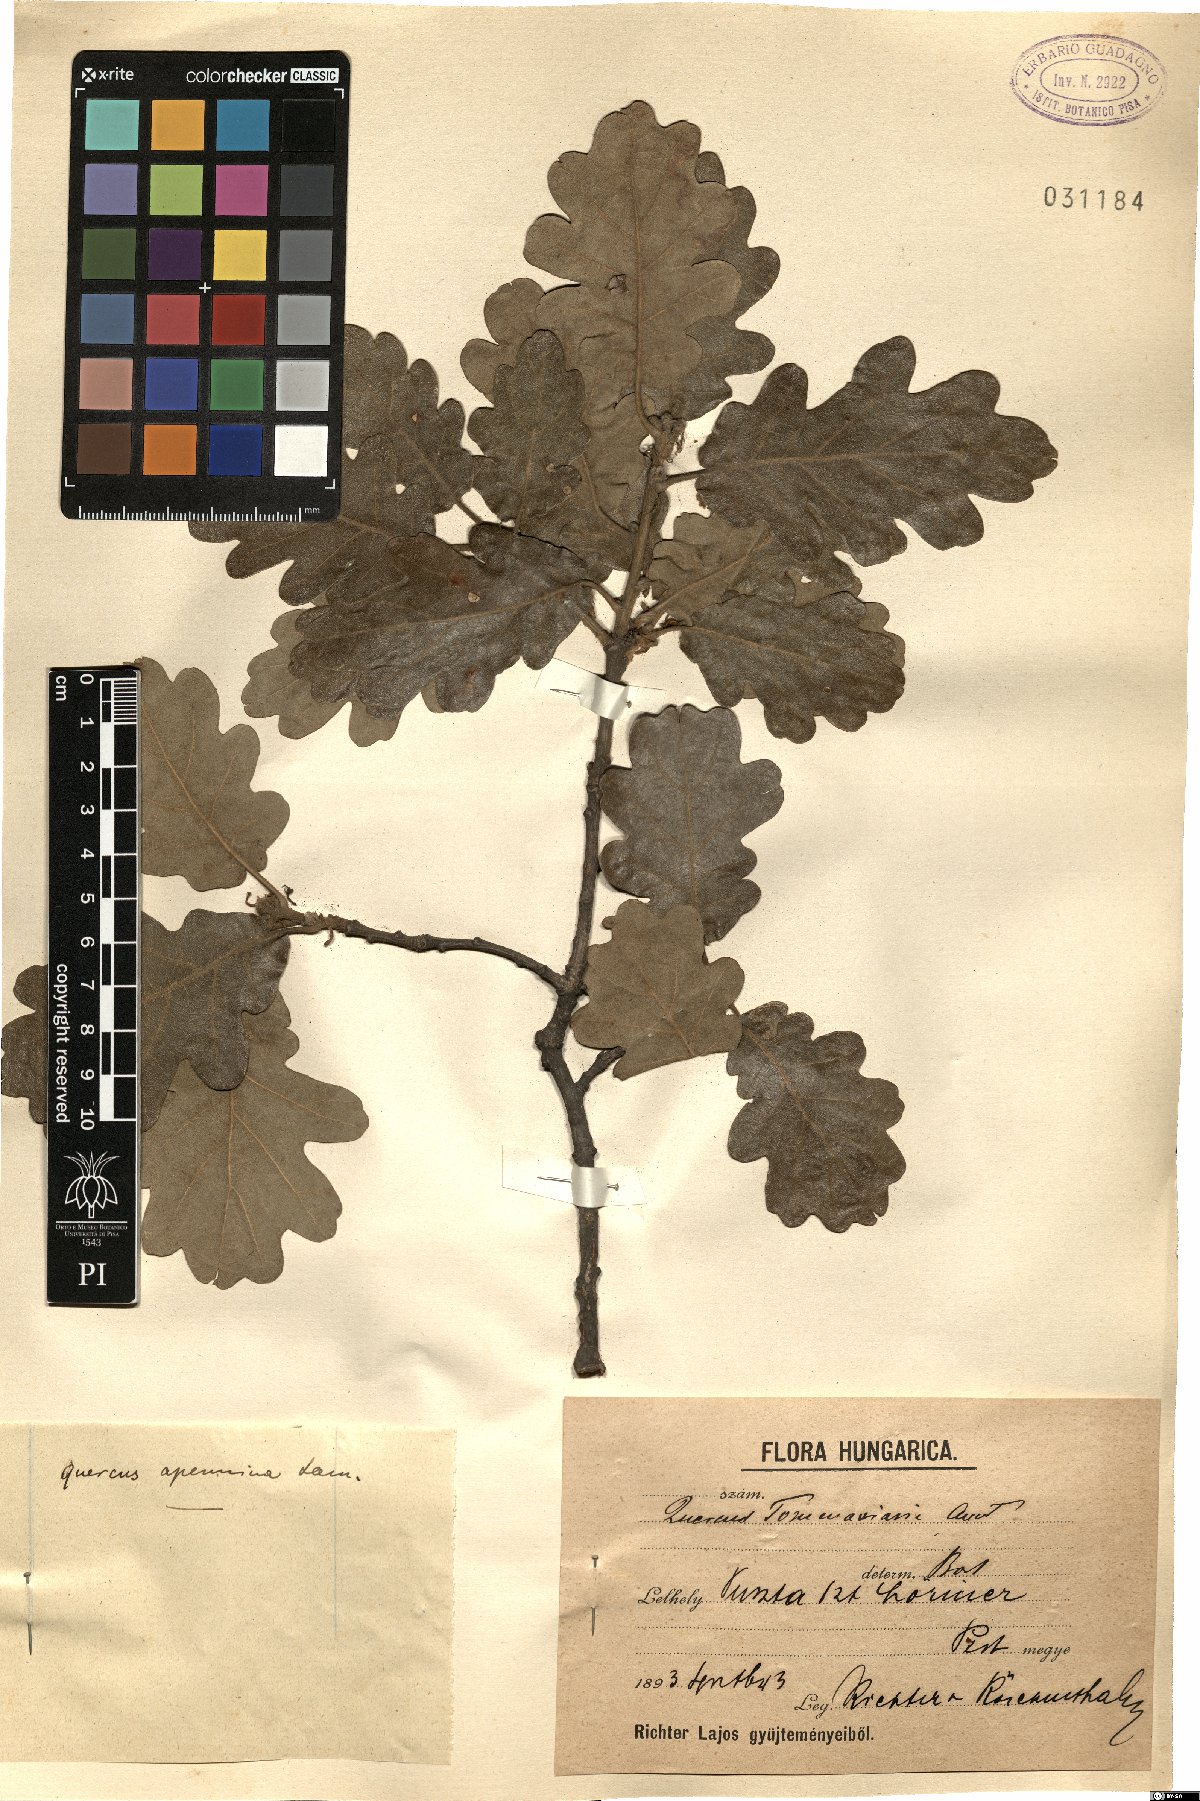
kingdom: Plantae
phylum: Tracheophyta
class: Magnoliopsida
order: Fagales
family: Fagaceae
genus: Quercus
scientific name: Quercus pubescens
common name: Downy oak
